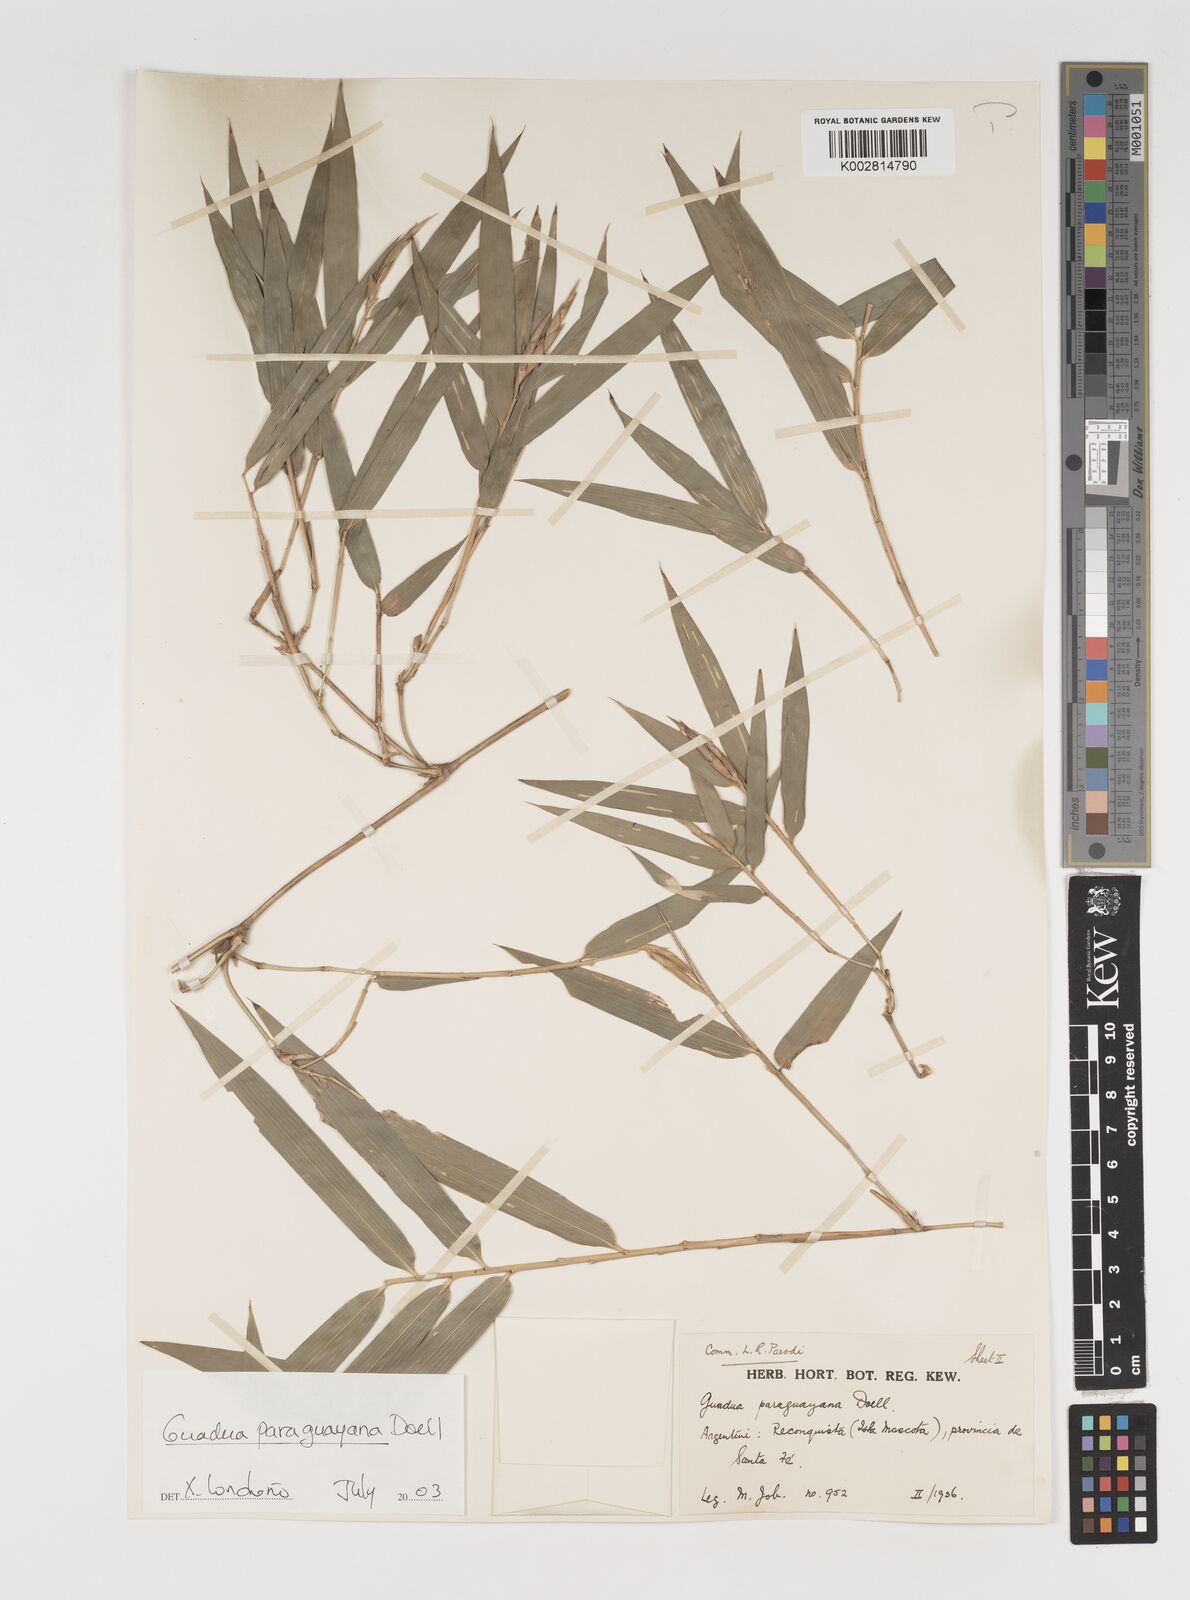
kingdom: Plantae
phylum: Tracheophyta
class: Liliopsida
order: Poales
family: Poaceae
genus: Guadua
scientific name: Guadua paraguayana
